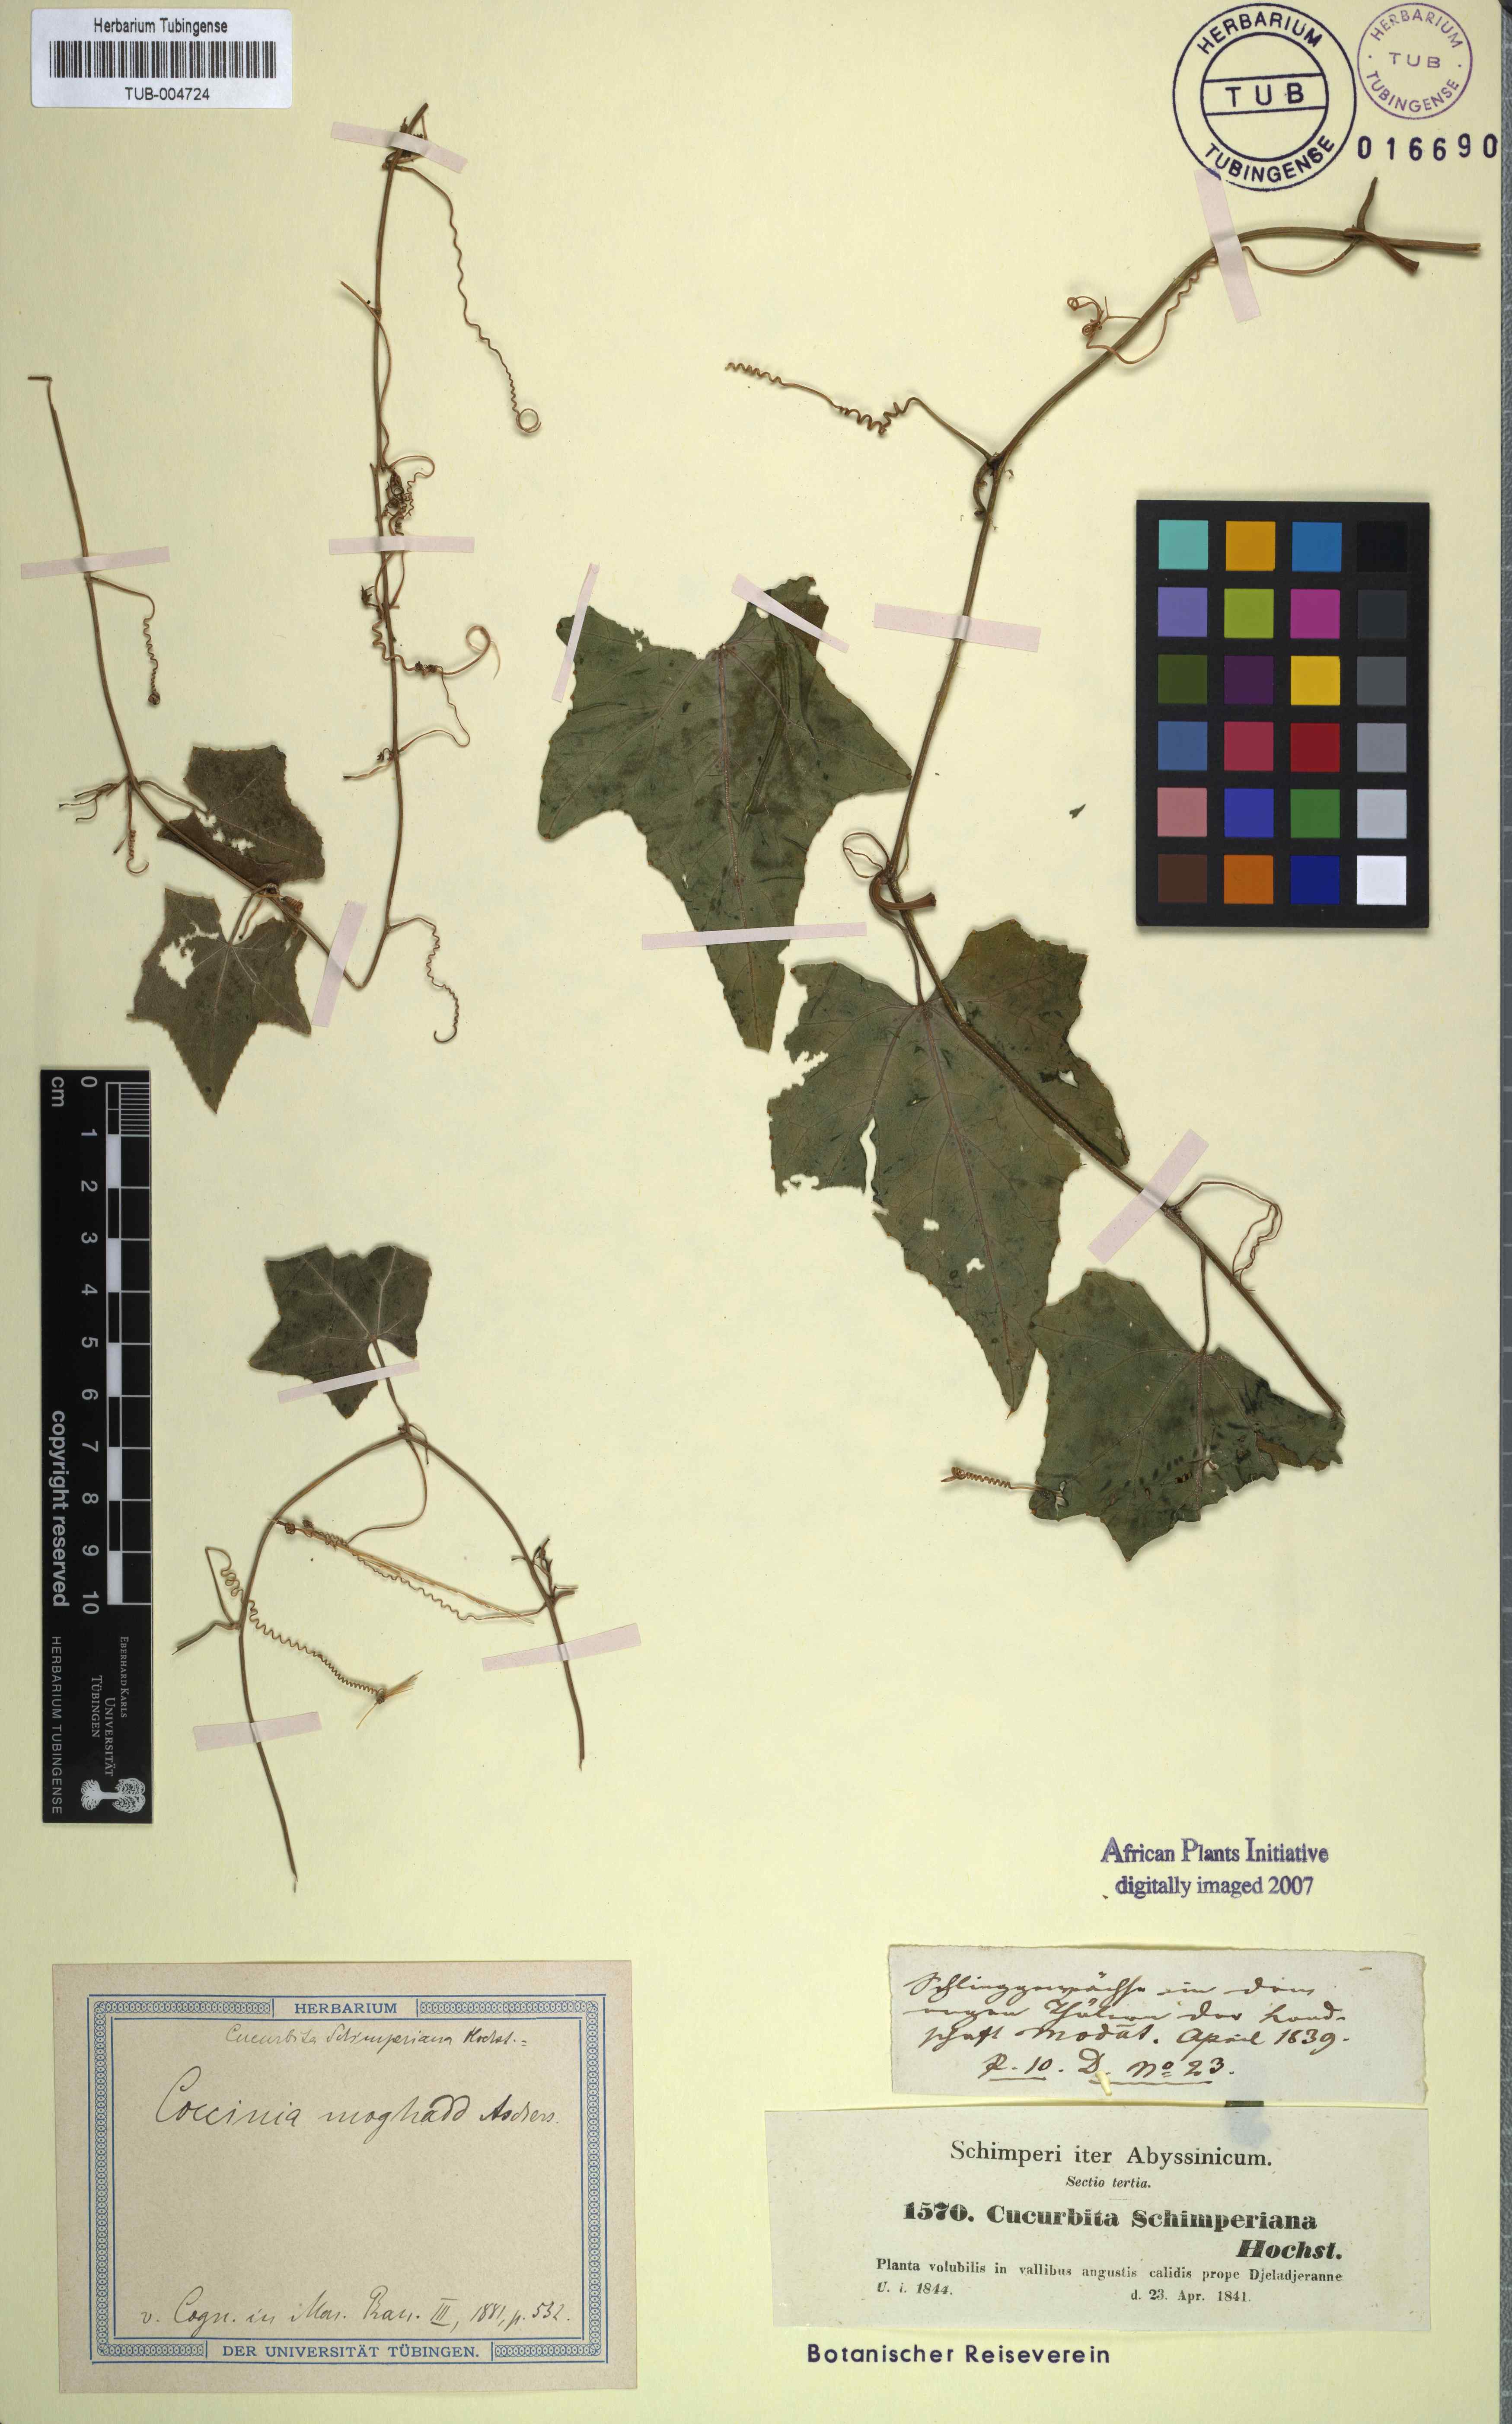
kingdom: Plantae
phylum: Tracheophyta
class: Magnoliopsida
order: Cucurbitales
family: Cucurbitaceae
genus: Coccinia
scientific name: Coccinia grandis
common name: Ivy gourd
